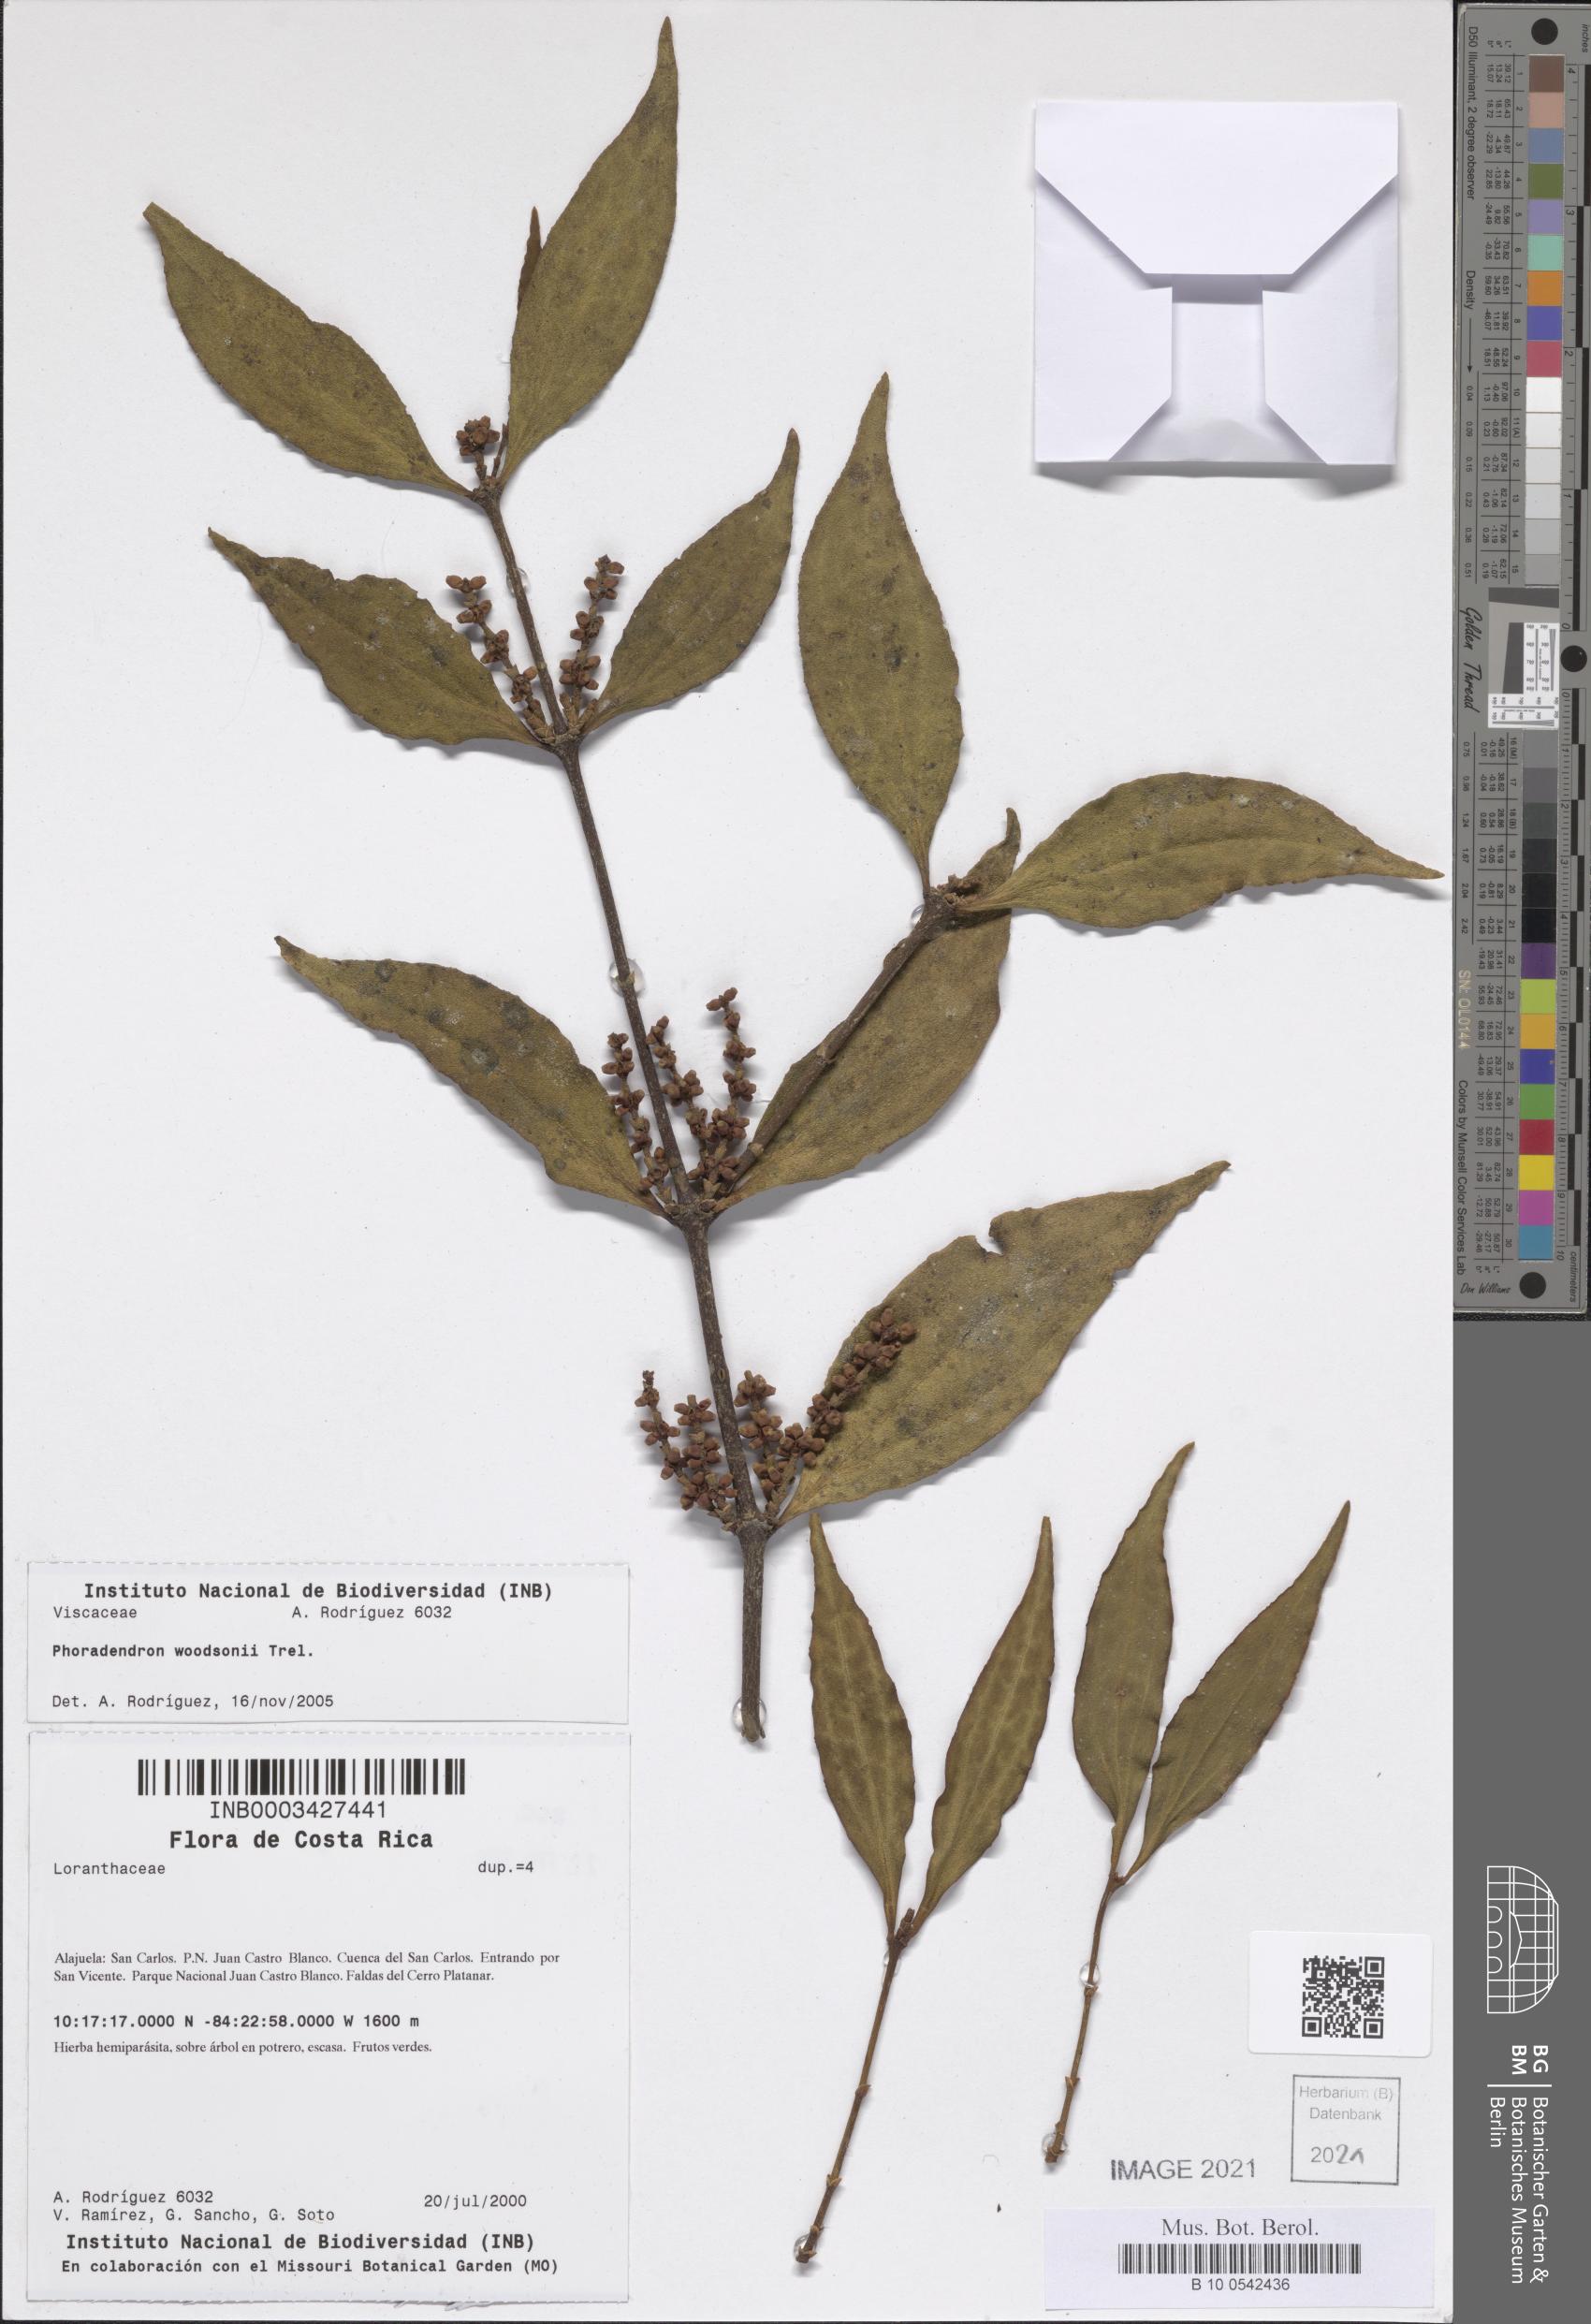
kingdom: Plantae
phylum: Tracheophyta
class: Magnoliopsida
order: Santalales
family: Viscaceae
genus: Phoradendron
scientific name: Phoradendron haberi
